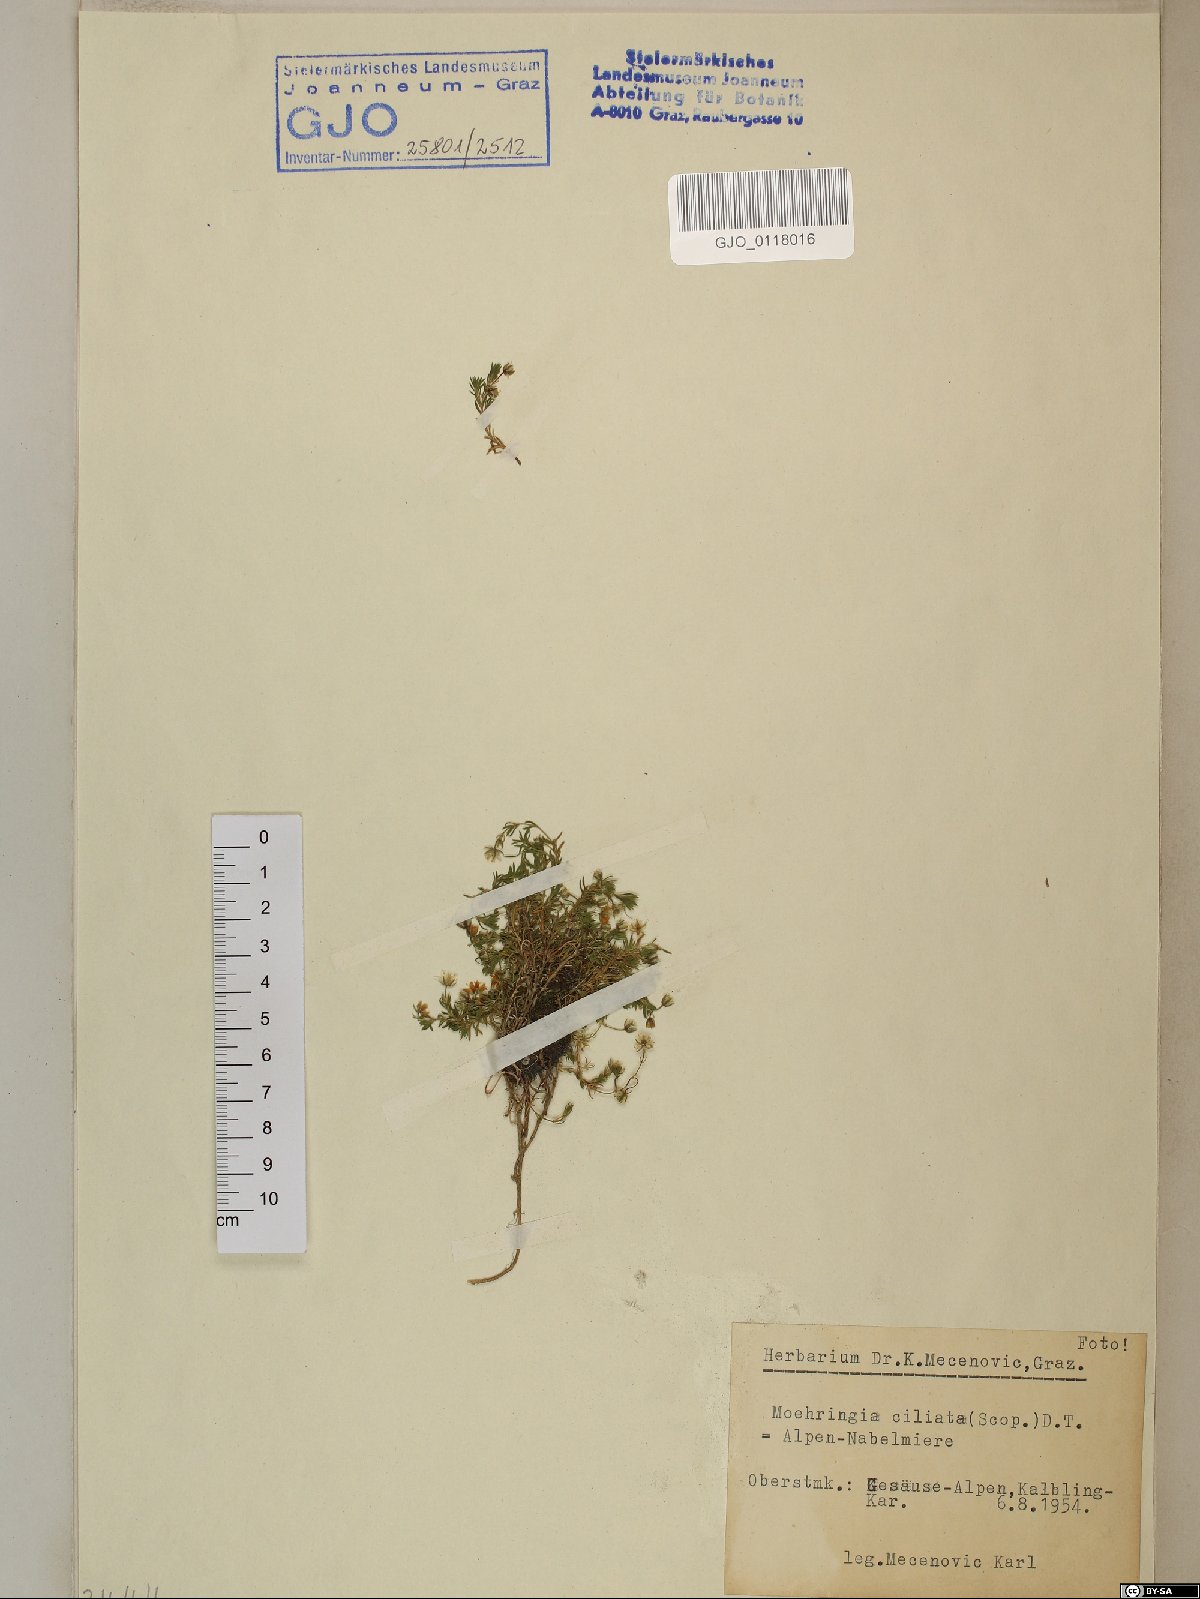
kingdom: Plantae
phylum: Tracheophyta
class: Magnoliopsida
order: Caryophyllales
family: Caryophyllaceae
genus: Moehringia
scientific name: Moehringia ciliata
